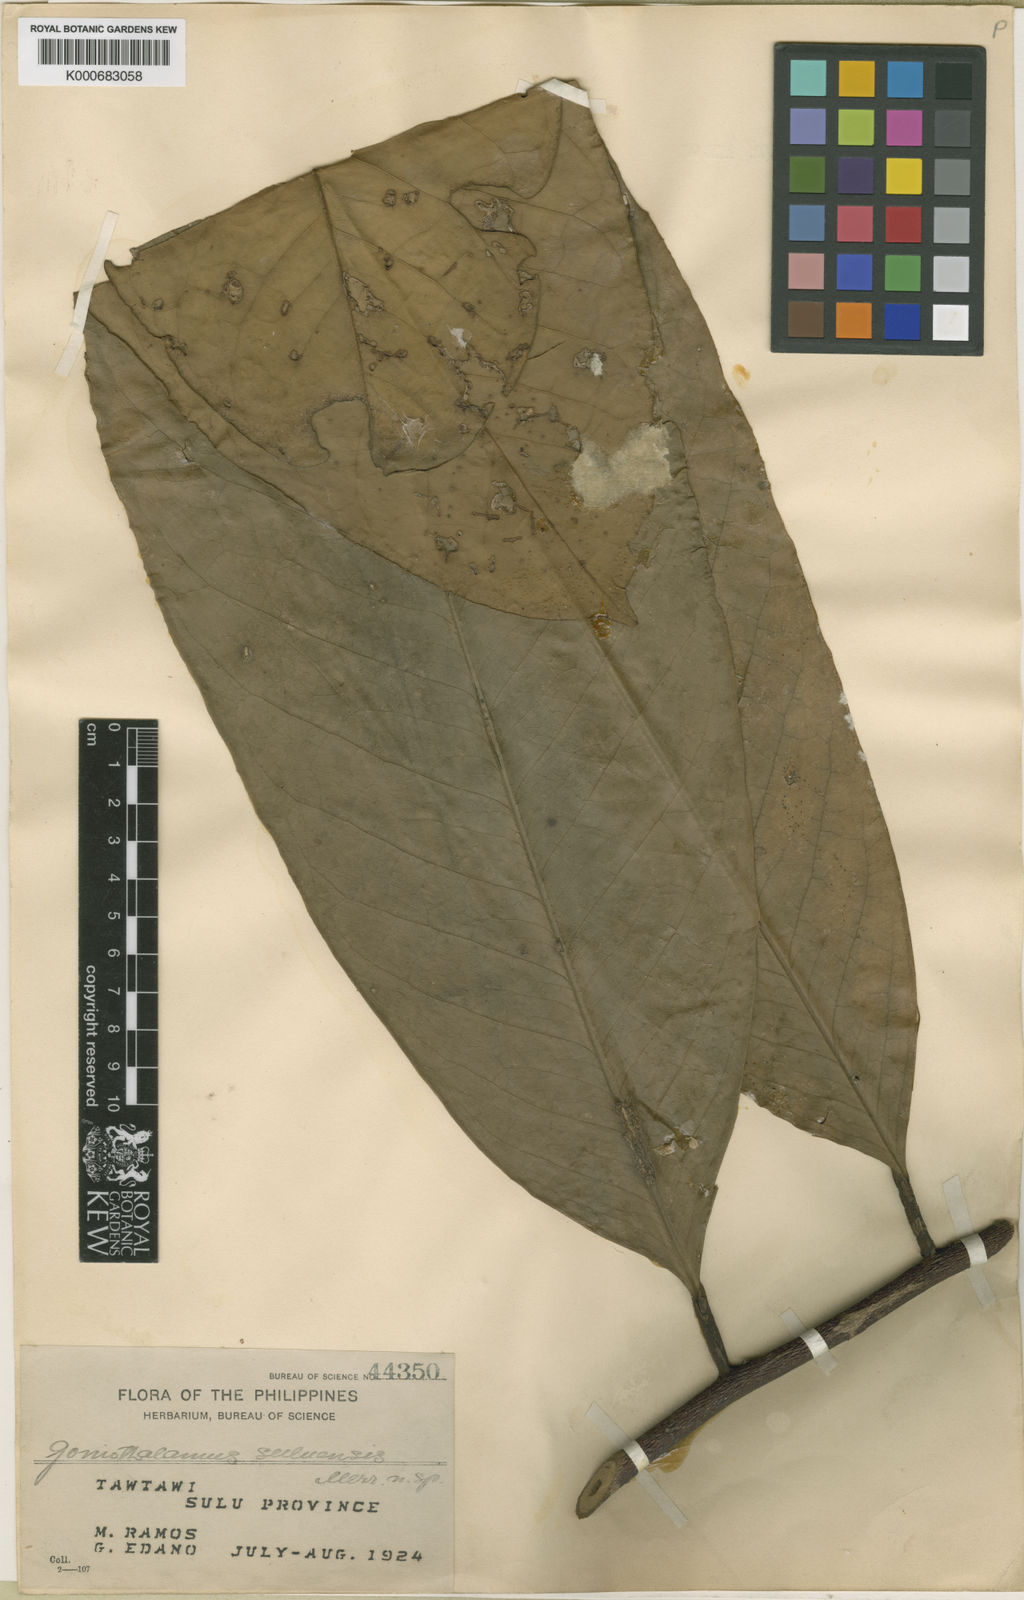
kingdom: Plantae
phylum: Tracheophyta
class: Magnoliopsida
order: Magnoliales
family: Annonaceae
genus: Goniothalamus
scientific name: Goniothalamus suluensis
